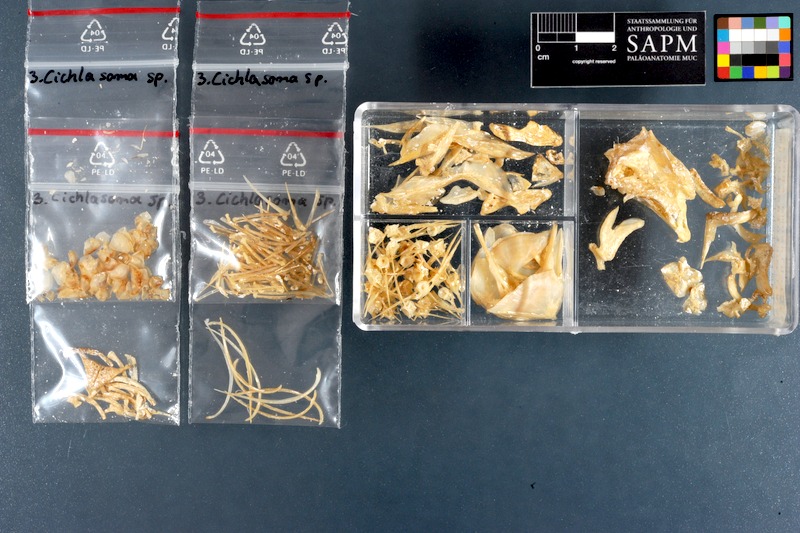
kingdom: Animalia
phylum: Chordata
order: Perciformes
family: Cichlidae
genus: Cichlasoma
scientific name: Cichlasoma
